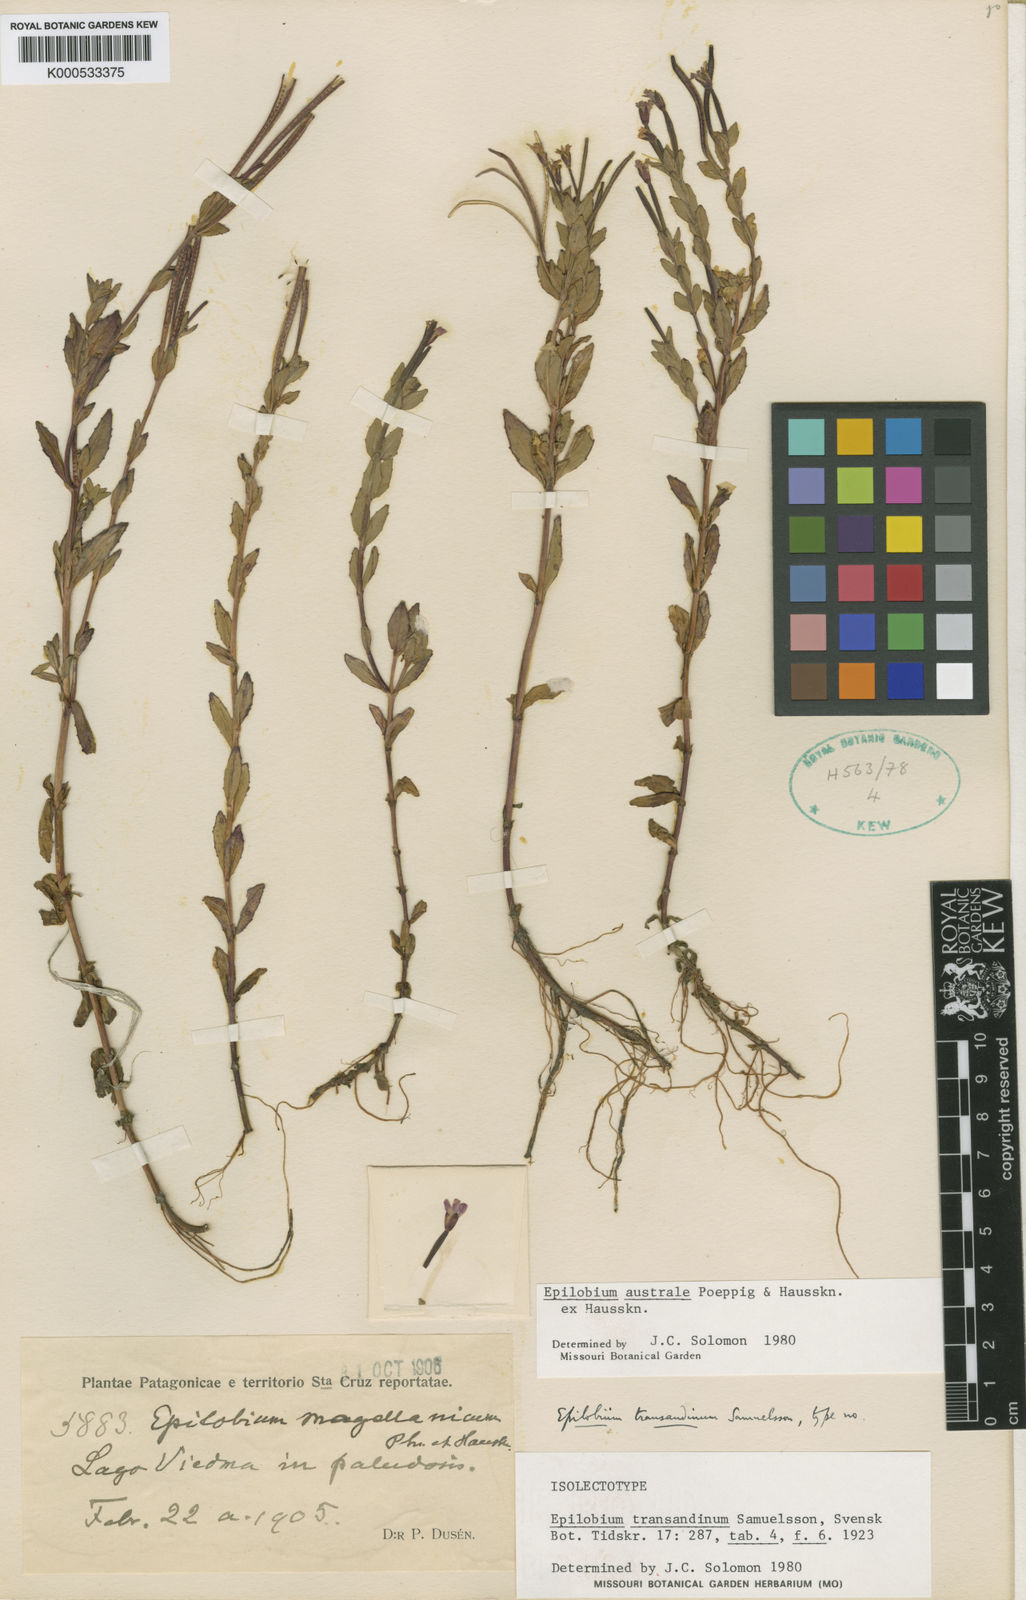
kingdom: Plantae
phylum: Tracheophyta
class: Magnoliopsida
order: Myrtales
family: Onagraceae
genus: Epilobium
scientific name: Epilobium australe
